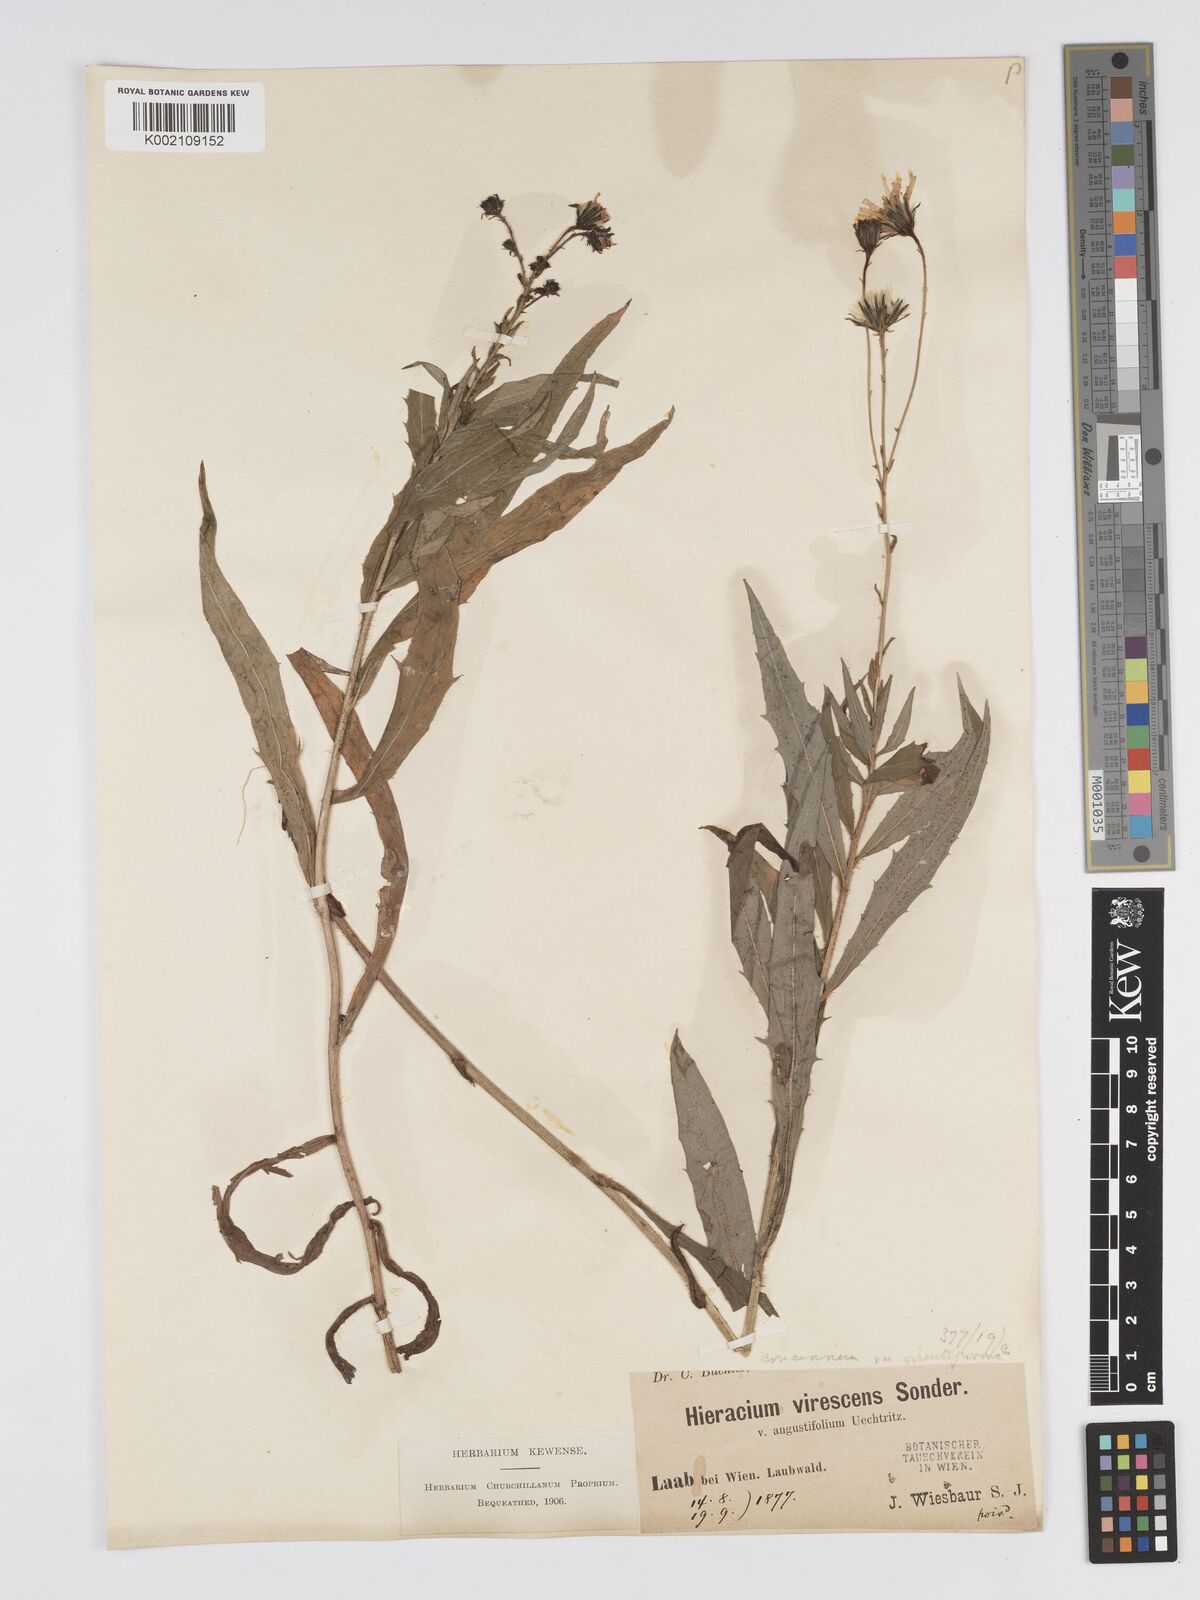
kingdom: Plantae
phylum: Tracheophyta
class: Magnoliopsida
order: Asterales
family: Asteraceae
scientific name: Asteraceae
